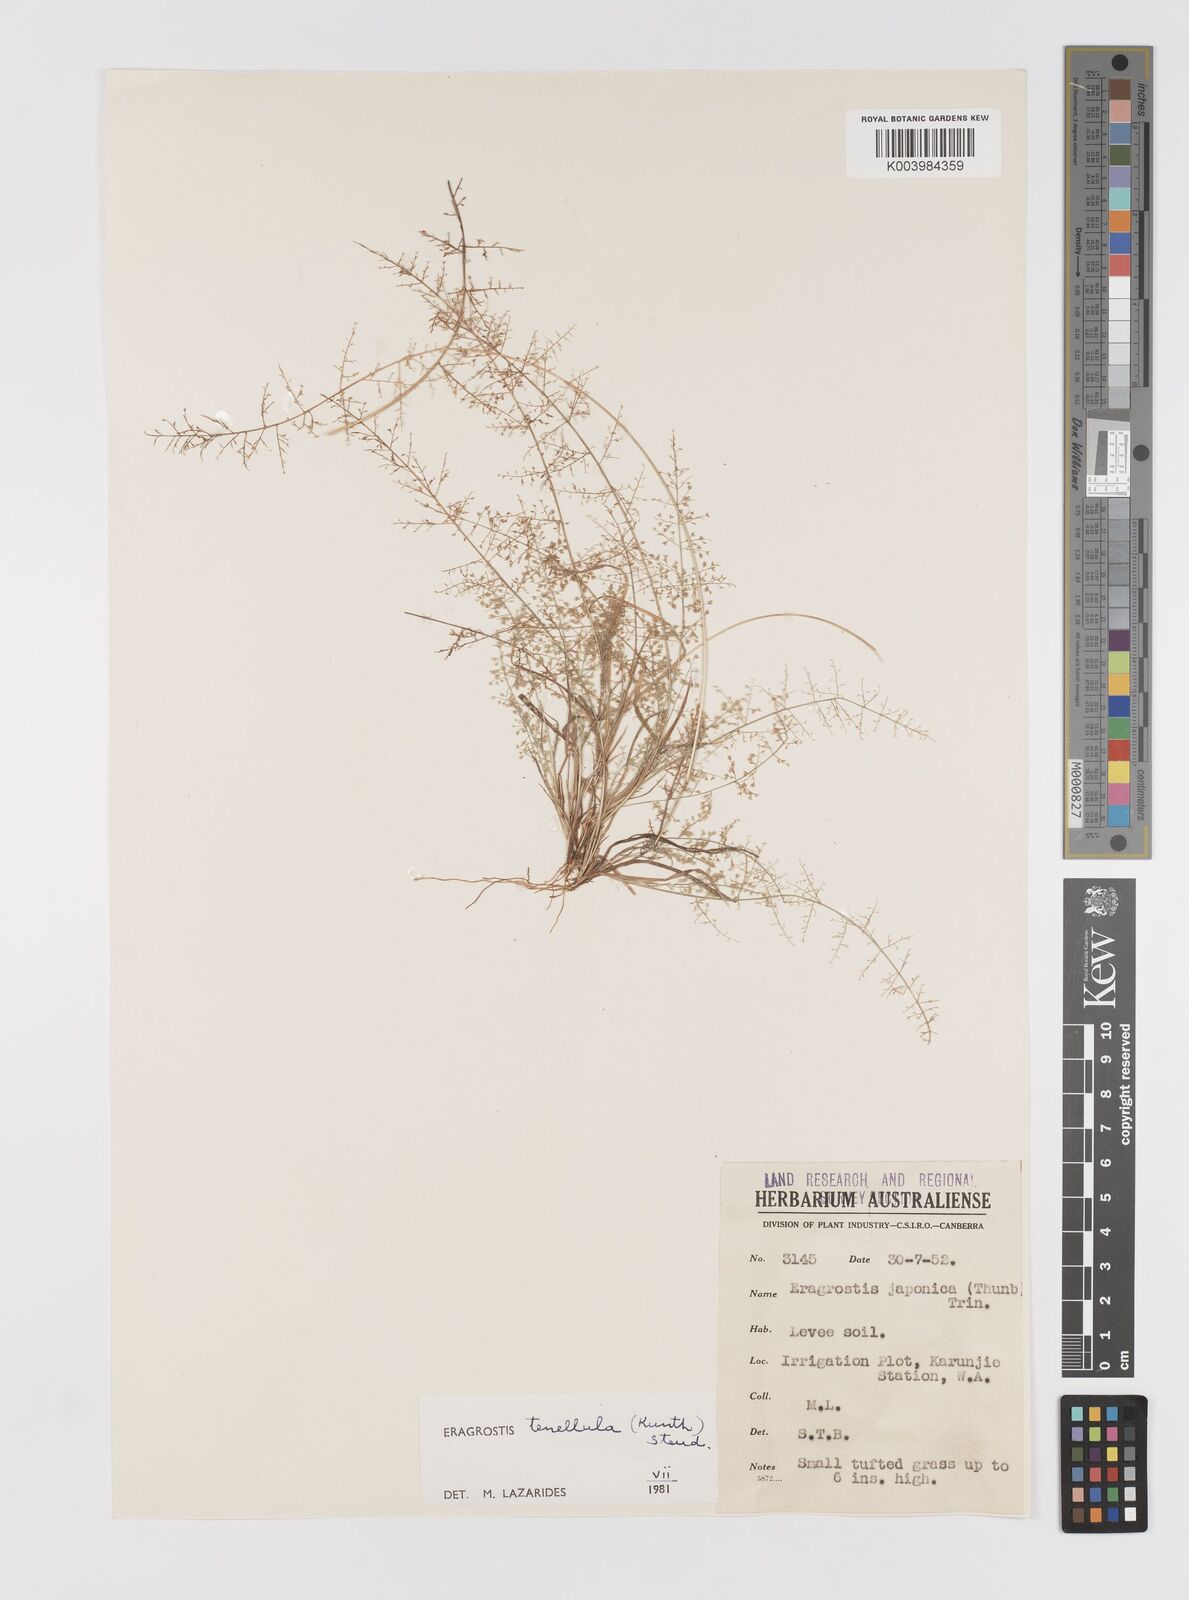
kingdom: Plantae
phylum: Tracheophyta
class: Liliopsida
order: Poales
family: Poaceae
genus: Eragrostis
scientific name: Eragrostis tenellula
